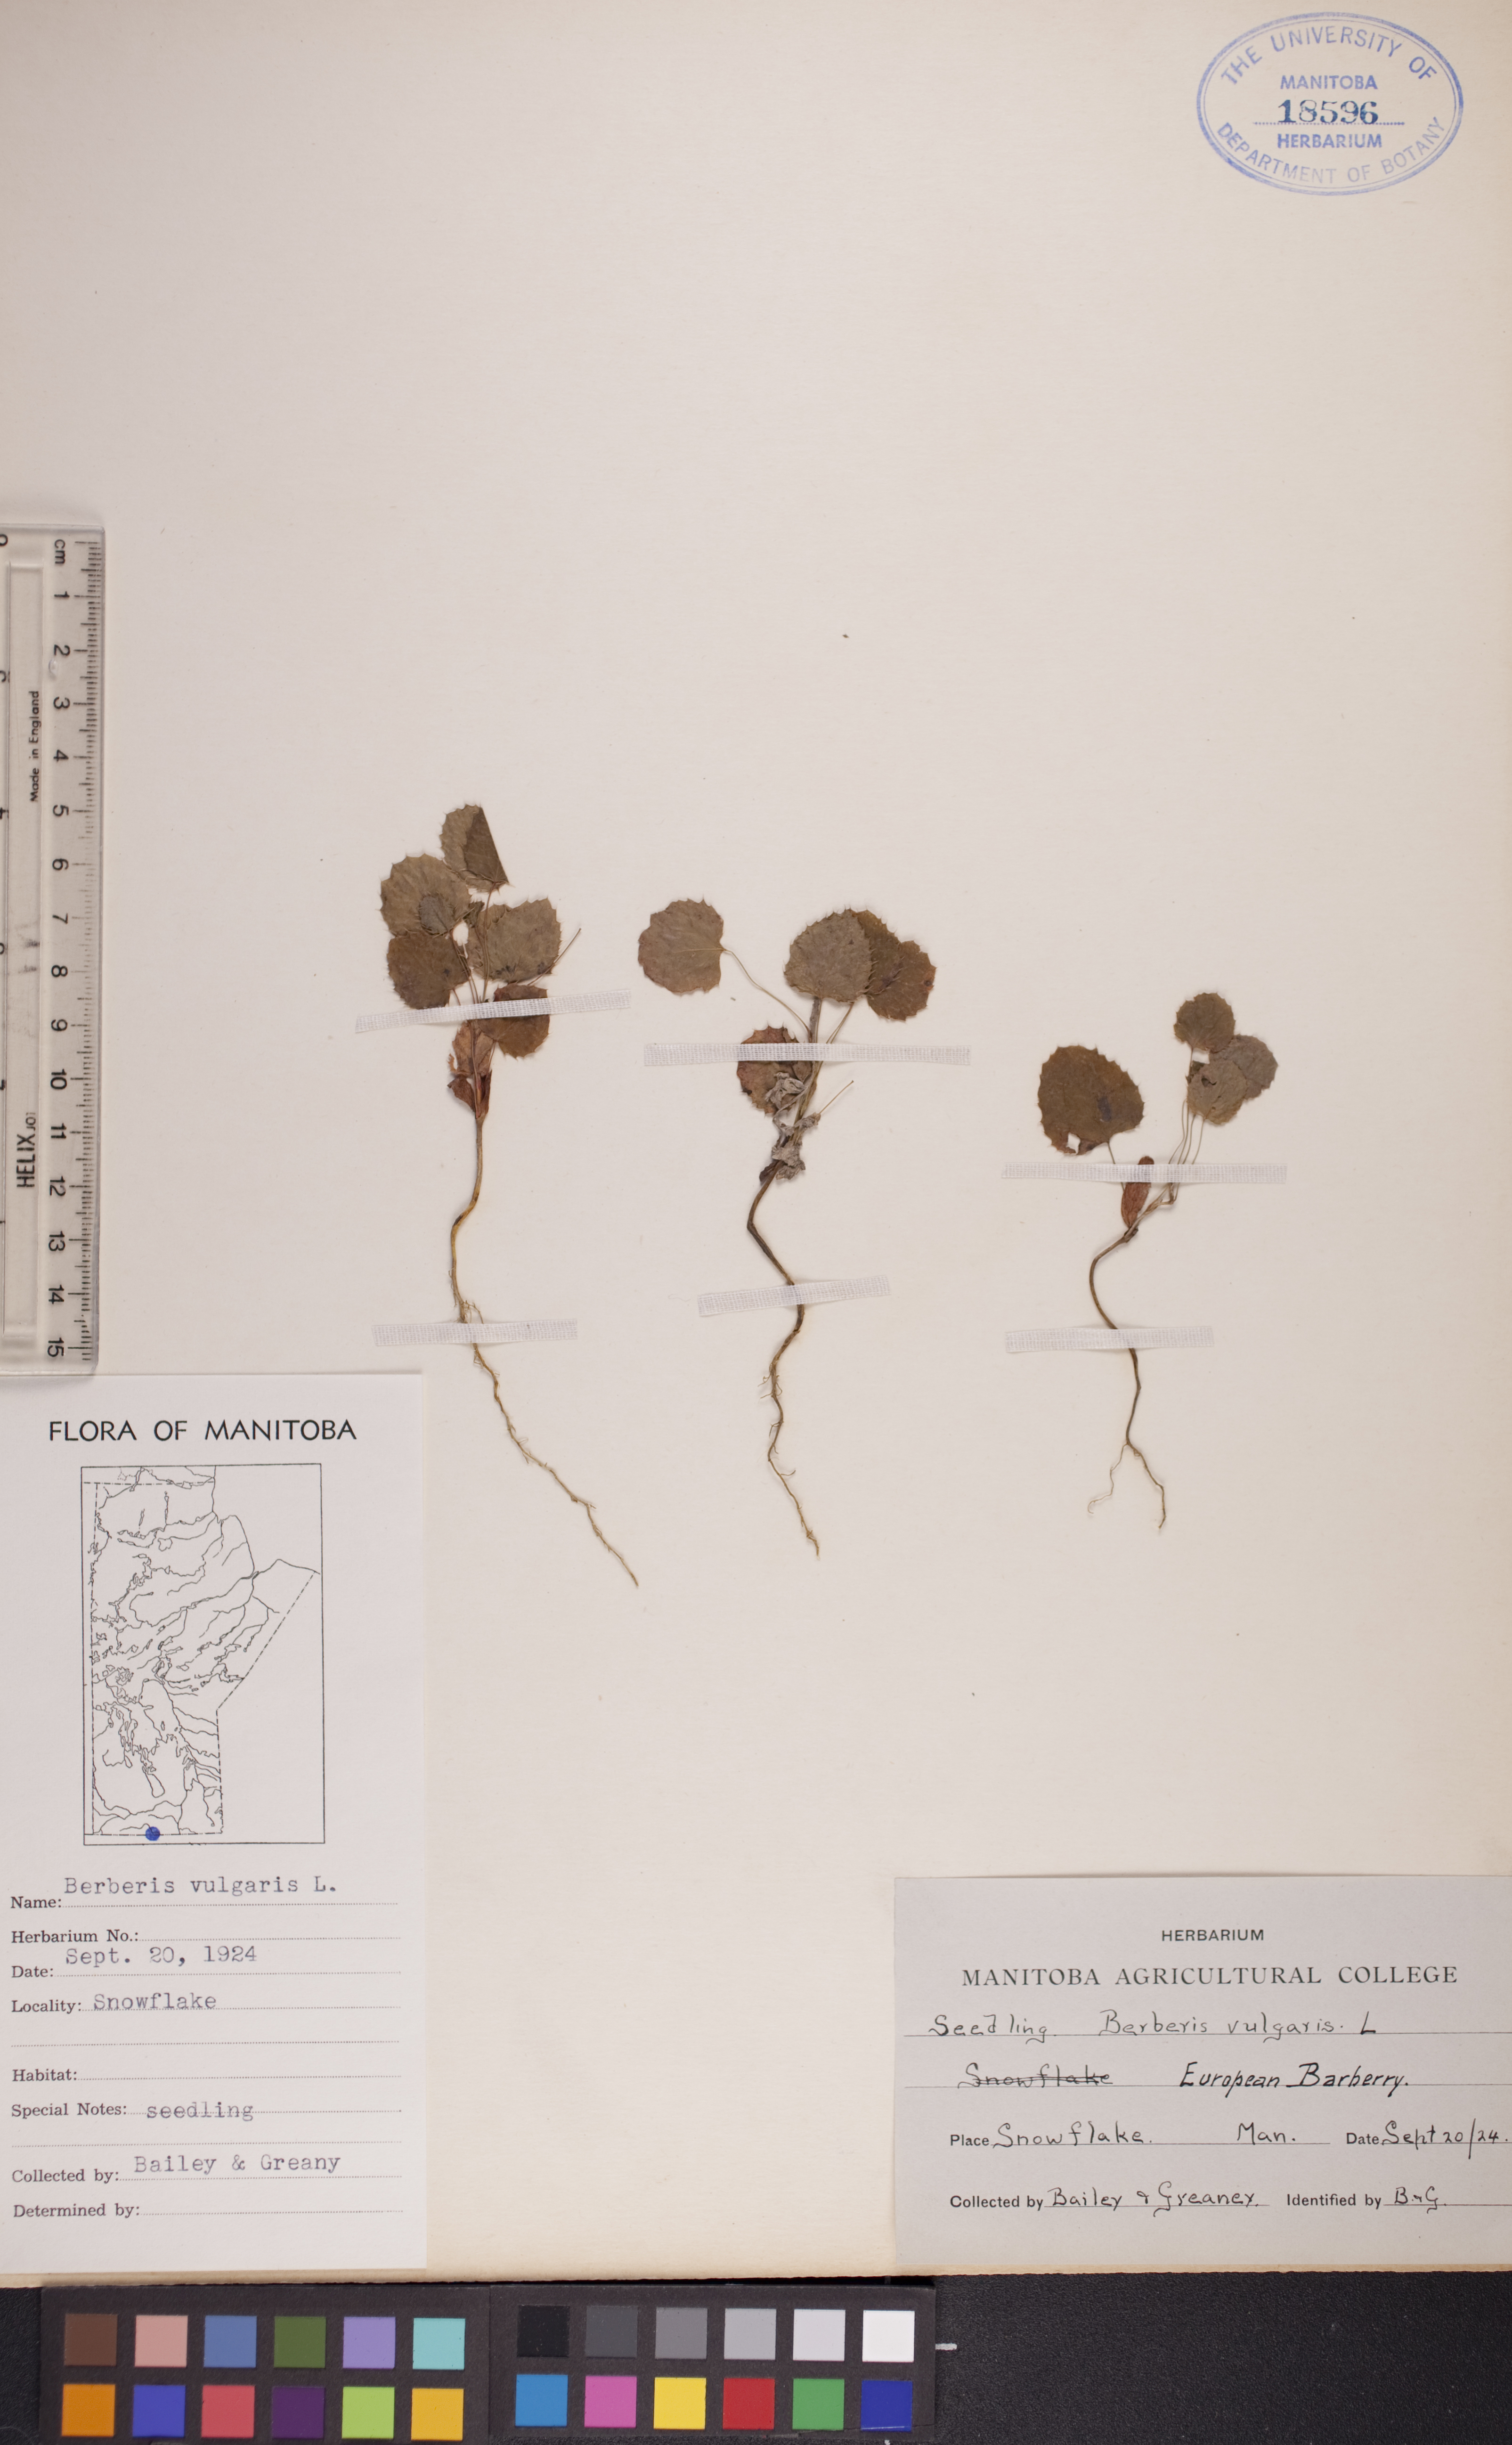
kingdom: Plantae
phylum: Tracheophyta
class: Magnoliopsida
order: Ranunculales
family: Berberidaceae
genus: Berberis
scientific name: Berberis vulgaris
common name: Barberry
